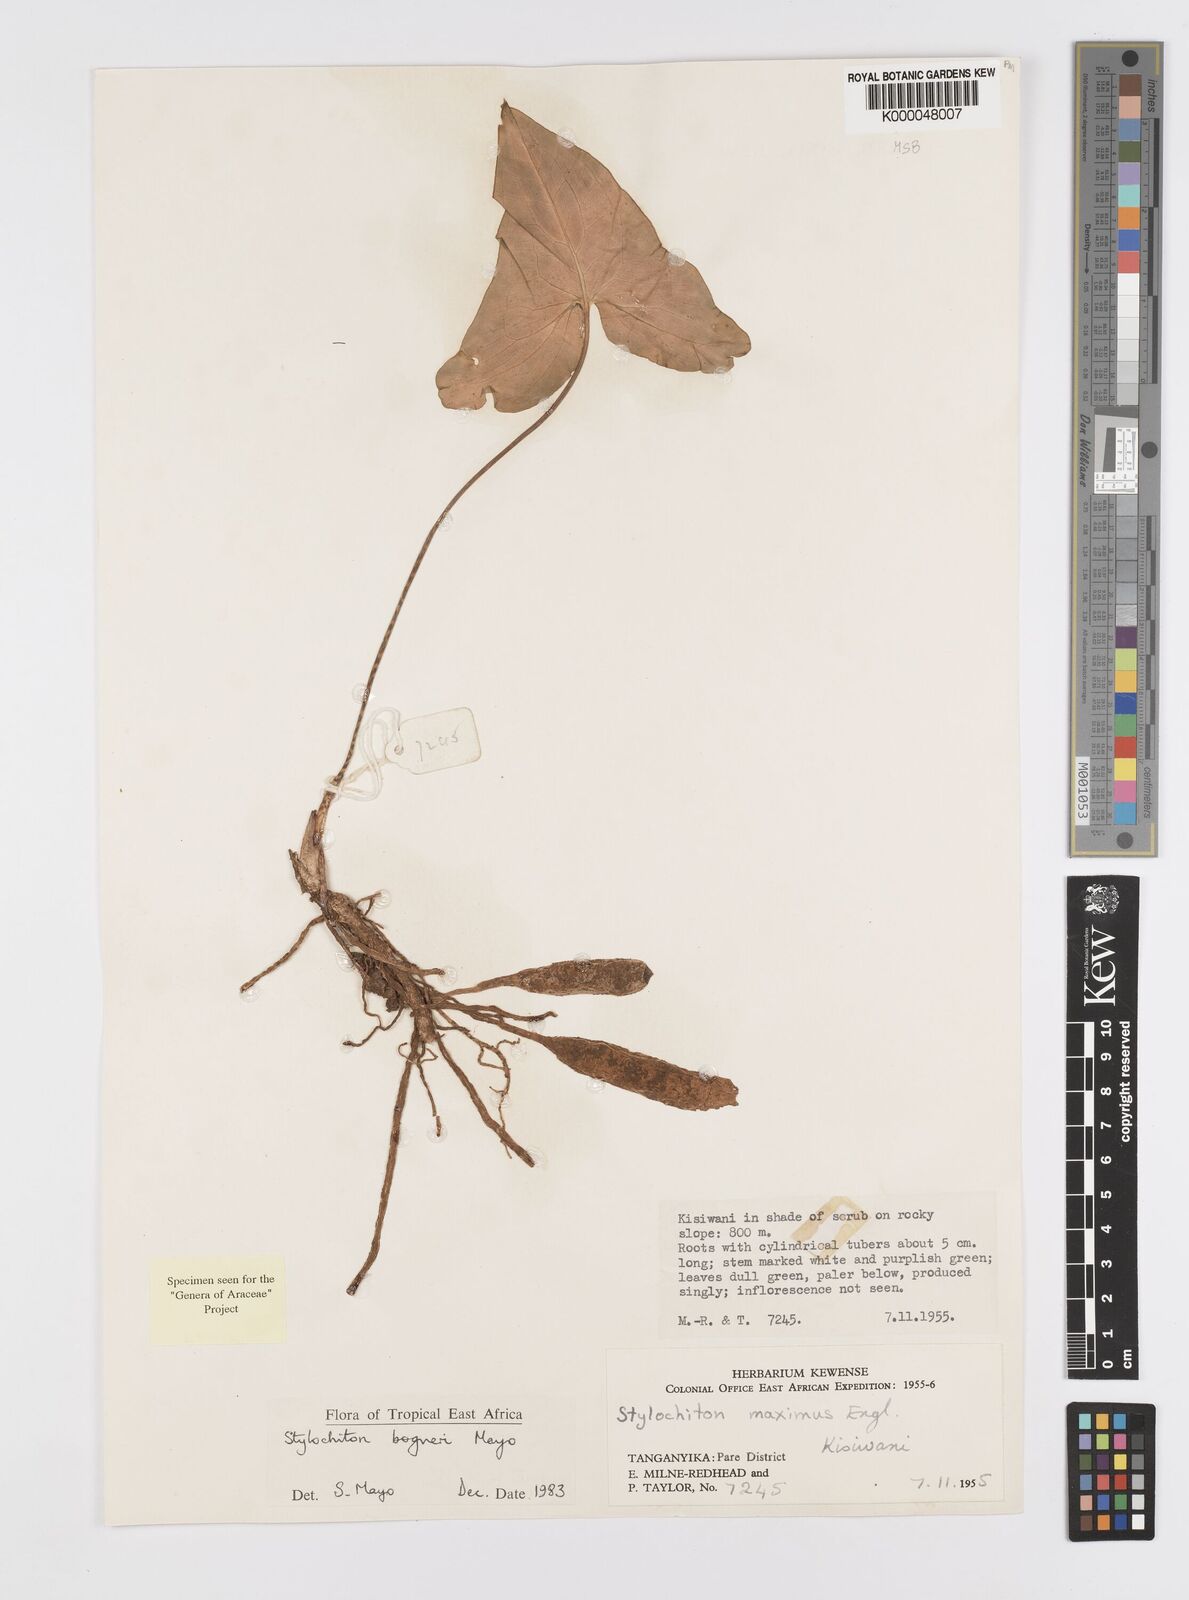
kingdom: Plantae
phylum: Tracheophyta
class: Liliopsida
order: Alismatales
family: Araceae
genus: Stylochaeton
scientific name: Stylochaeton bogneri
